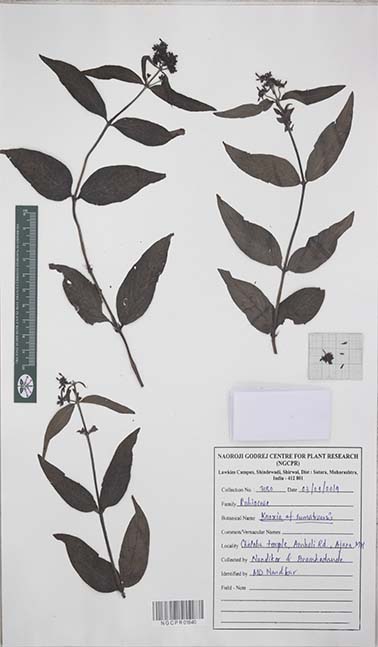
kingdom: Plantae
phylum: Tracheophyta
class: Magnoliopsida
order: Gentianales
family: Rubiaceae
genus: Knoxia
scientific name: Knoxia
